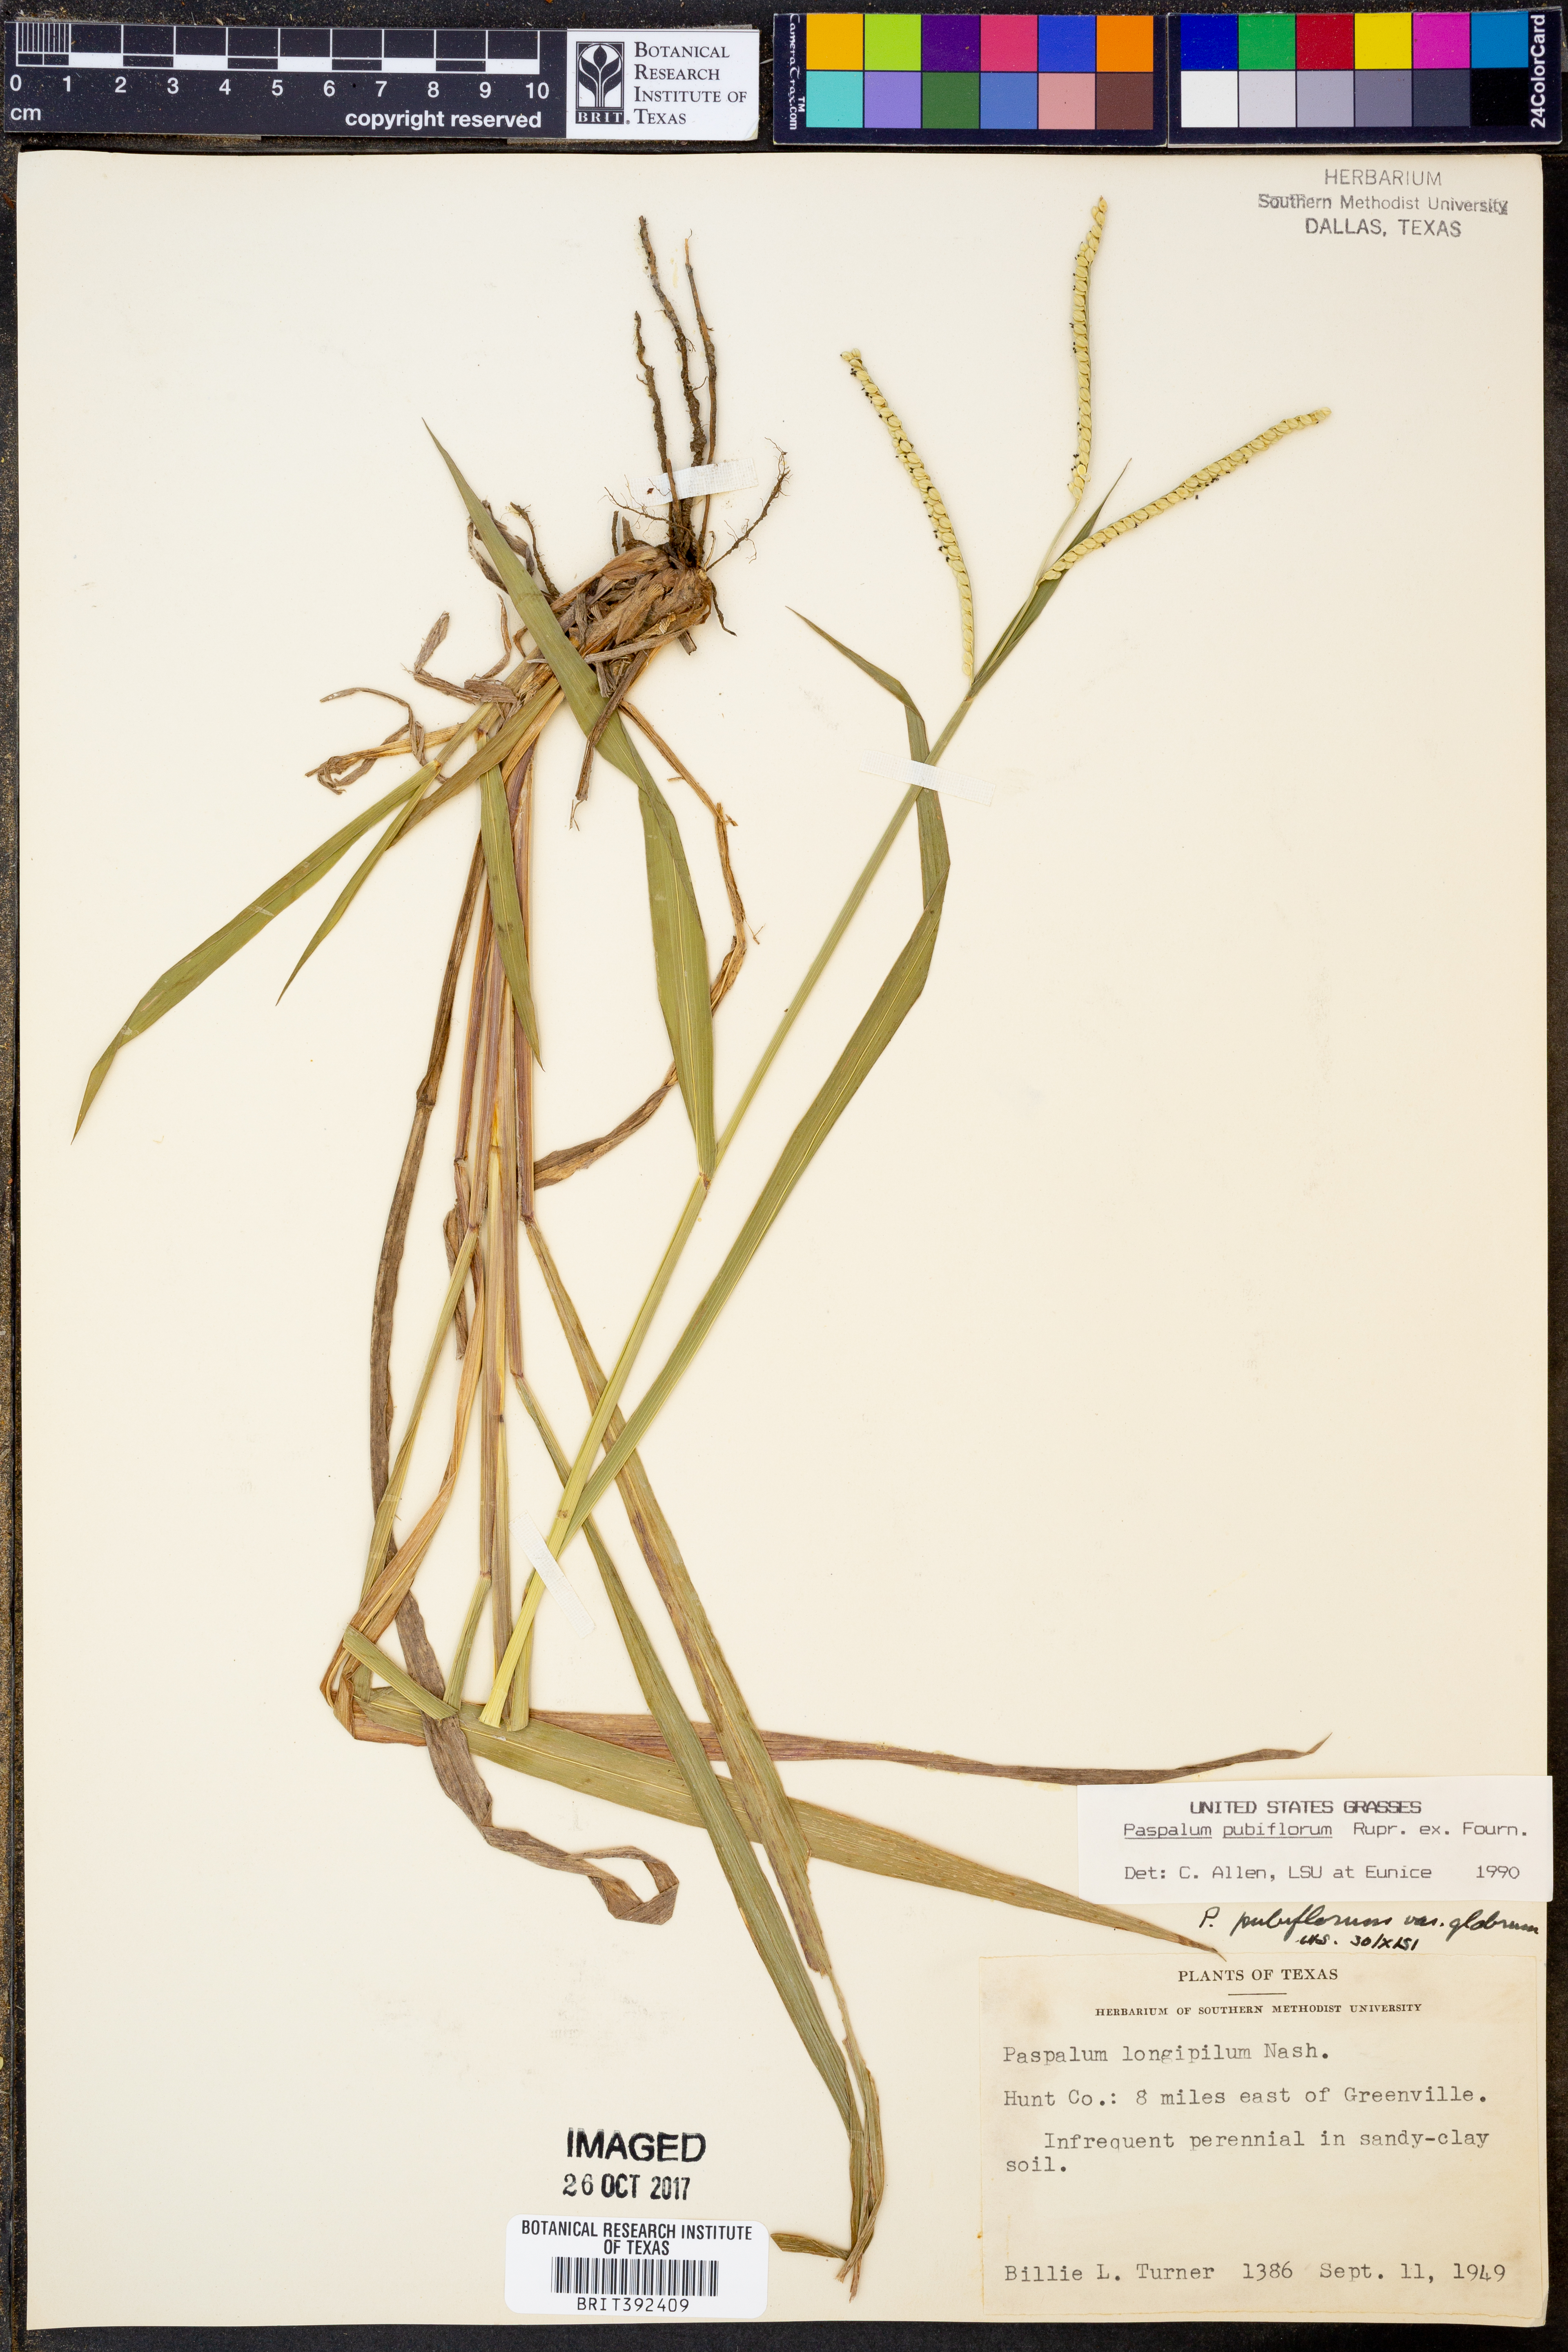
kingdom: Plantae
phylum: Tracheophyta
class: Liliopsida
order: Poales
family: Poaceae
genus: Paspalum
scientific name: Paspalum pubiflorum
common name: Hairy-seed paspalum
